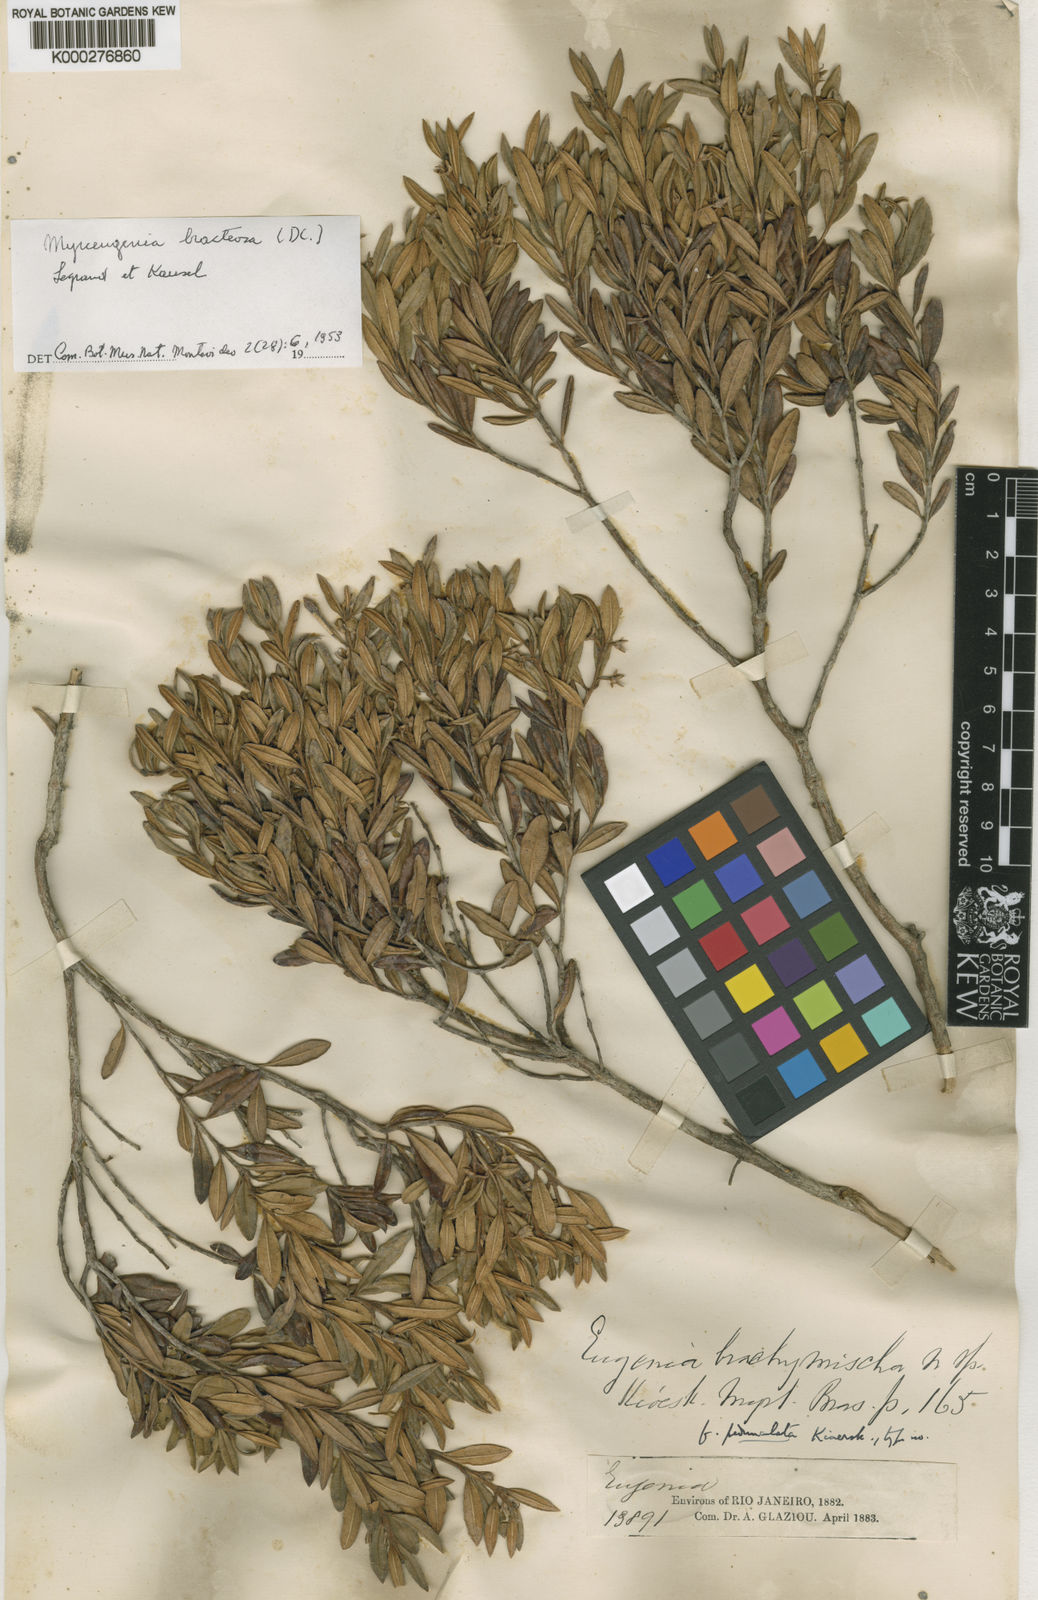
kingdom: Plantae
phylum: Tracheophyta
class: Magnoliopsida
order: Myrtales
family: Myrtaceae
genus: Myrceugenia
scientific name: Myrceugenia bracteosa
